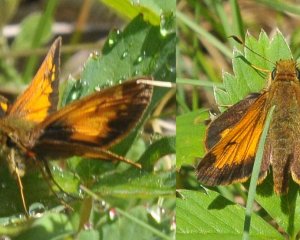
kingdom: Animalia
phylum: Arthropoda
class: Insecta
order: Lepidoptera
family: Hesperiidae
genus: Lon
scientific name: Lon hobomok
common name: Hobomok Skipper
